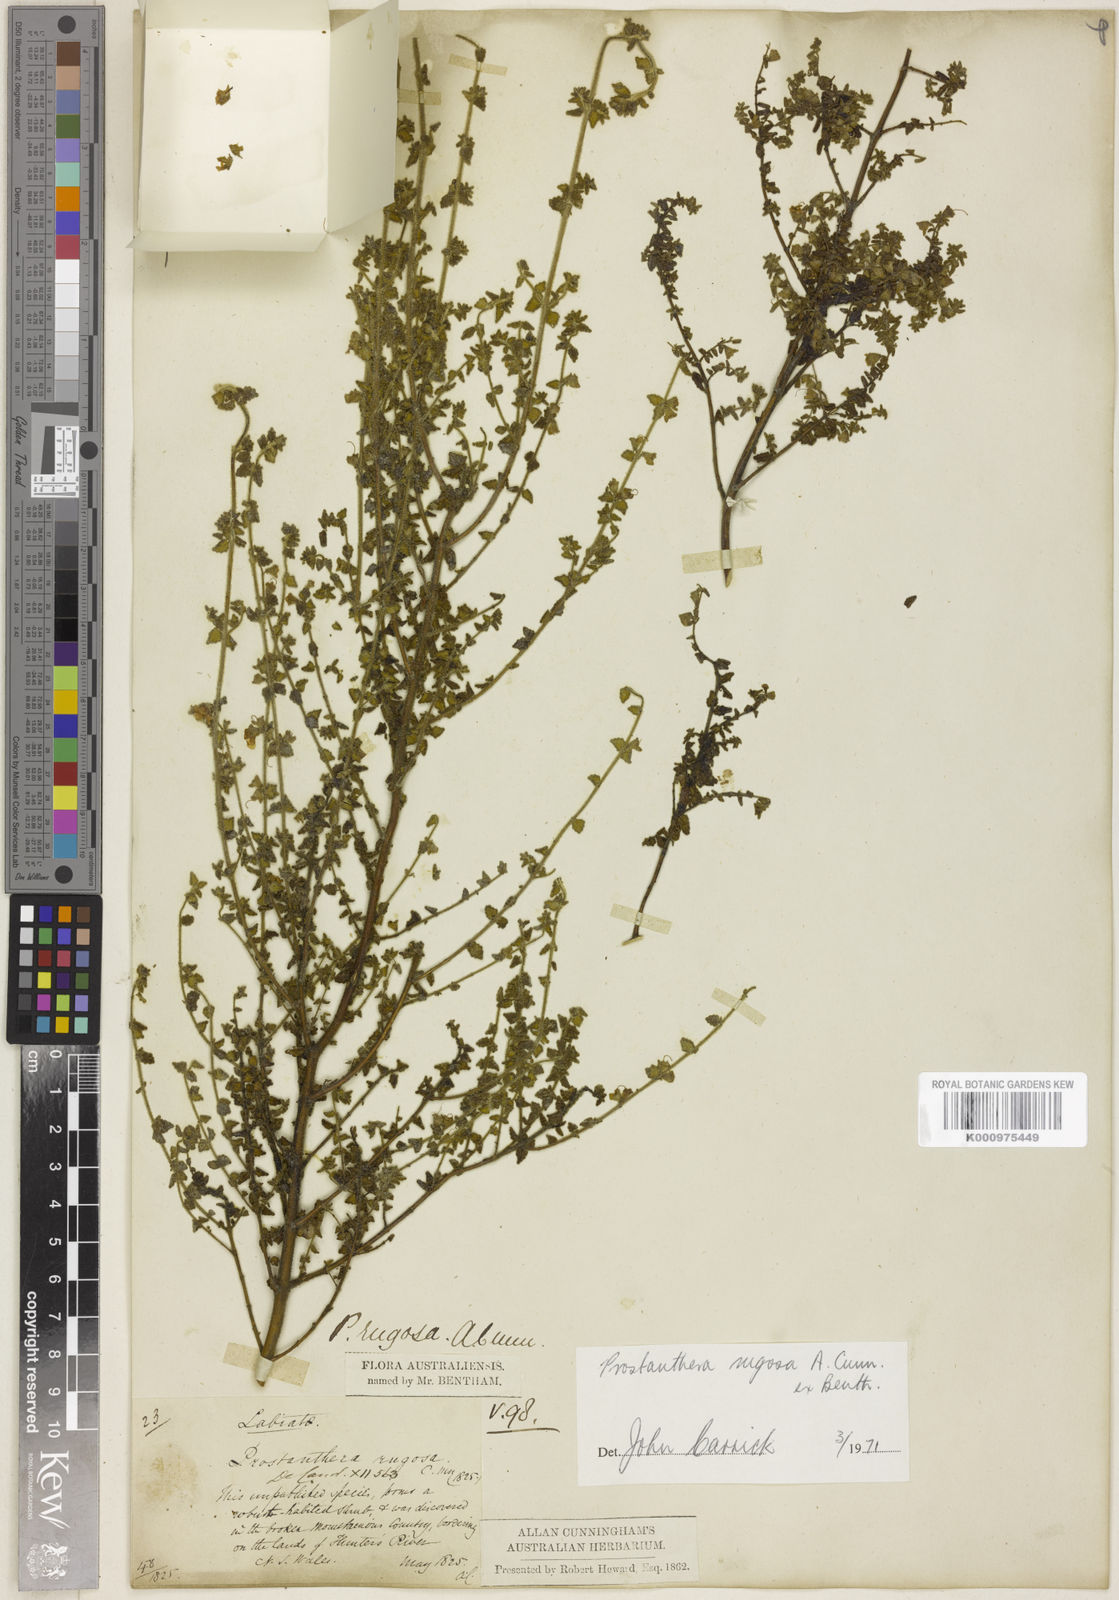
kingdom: Plantae
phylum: Tracheophyta
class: Magnoliopsida
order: Lamiales
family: Lamiaceae
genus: Prostanthera
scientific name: Prostanthera rugosa
